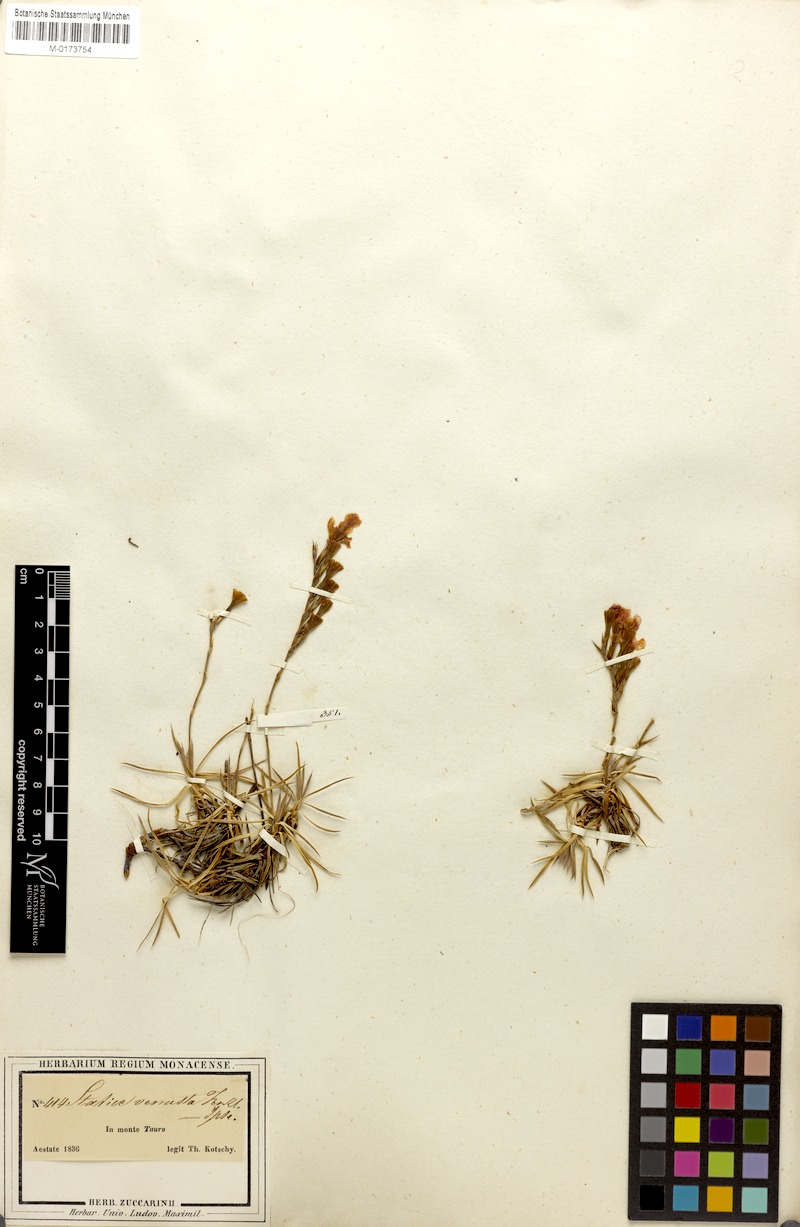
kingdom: Plantae
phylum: Tracheophyta
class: Magnoliopsida
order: Caryophyllales
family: Plumbaginaceae
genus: Acantholimon
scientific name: Acantholimon venustum
